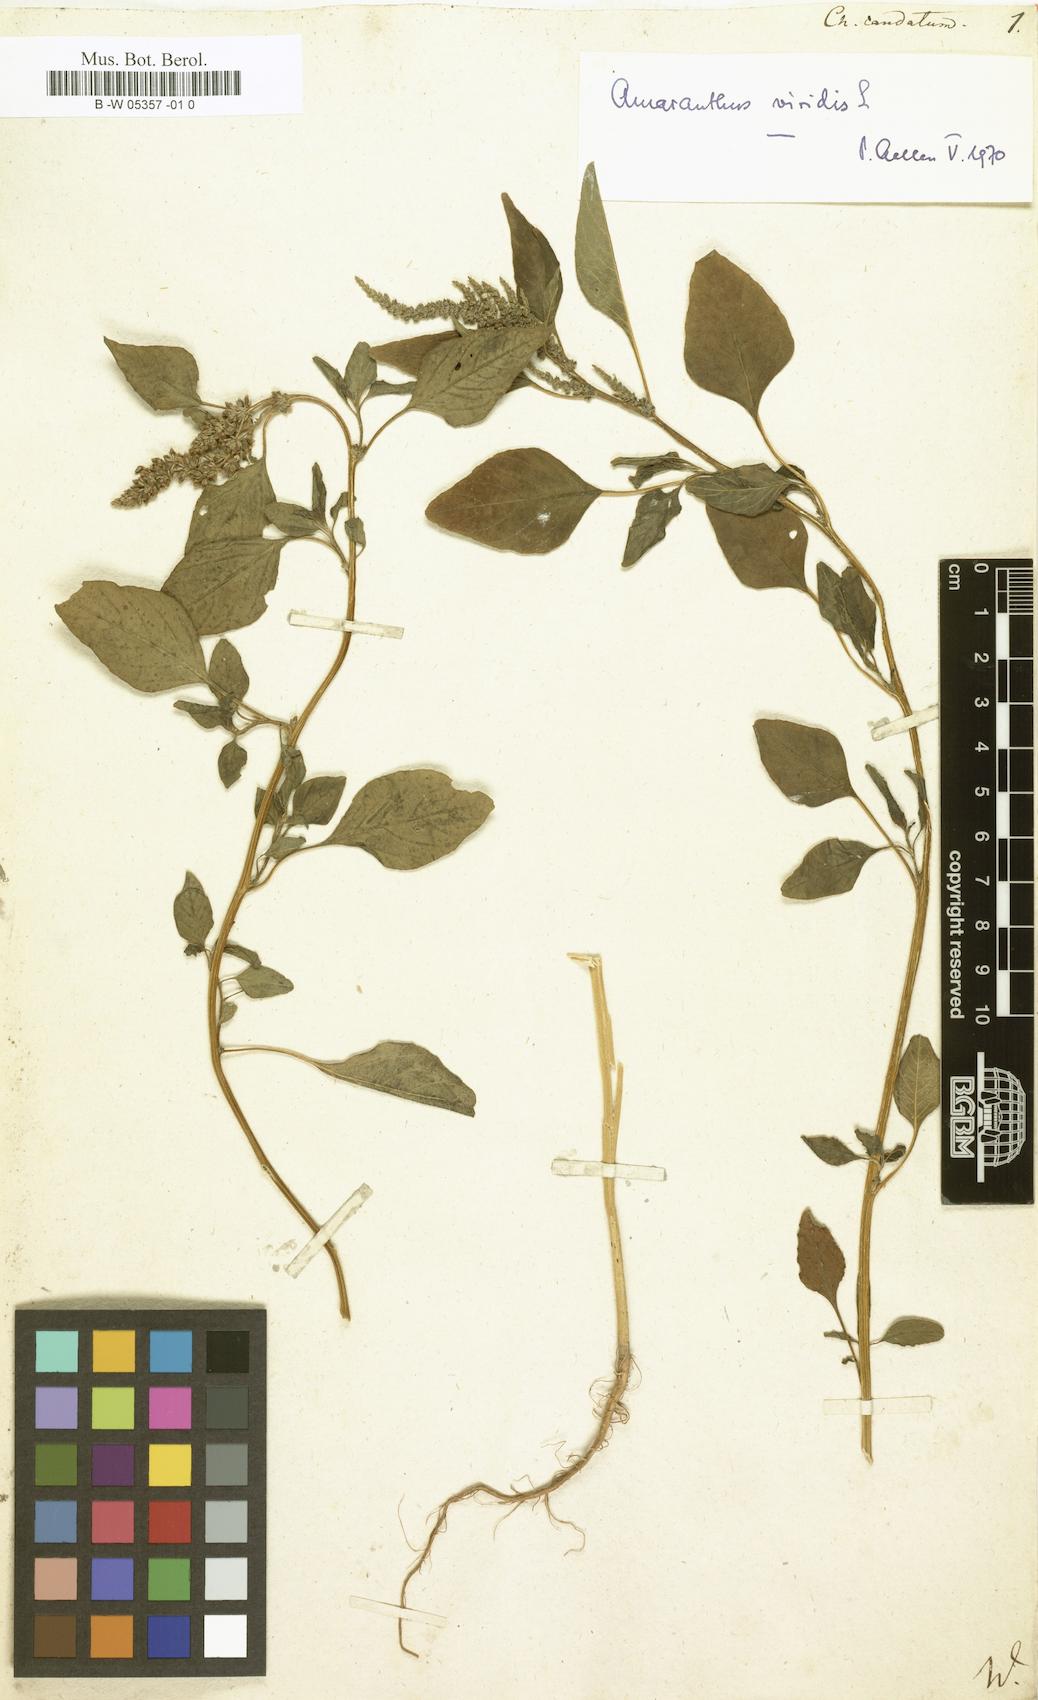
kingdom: Plantae
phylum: Tracheophyta
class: Magnoliopsida
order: Caryophyllales
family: Amaranthaceae
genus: Amaranthus
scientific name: Amaranthus viridis
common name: Slender amaranth
